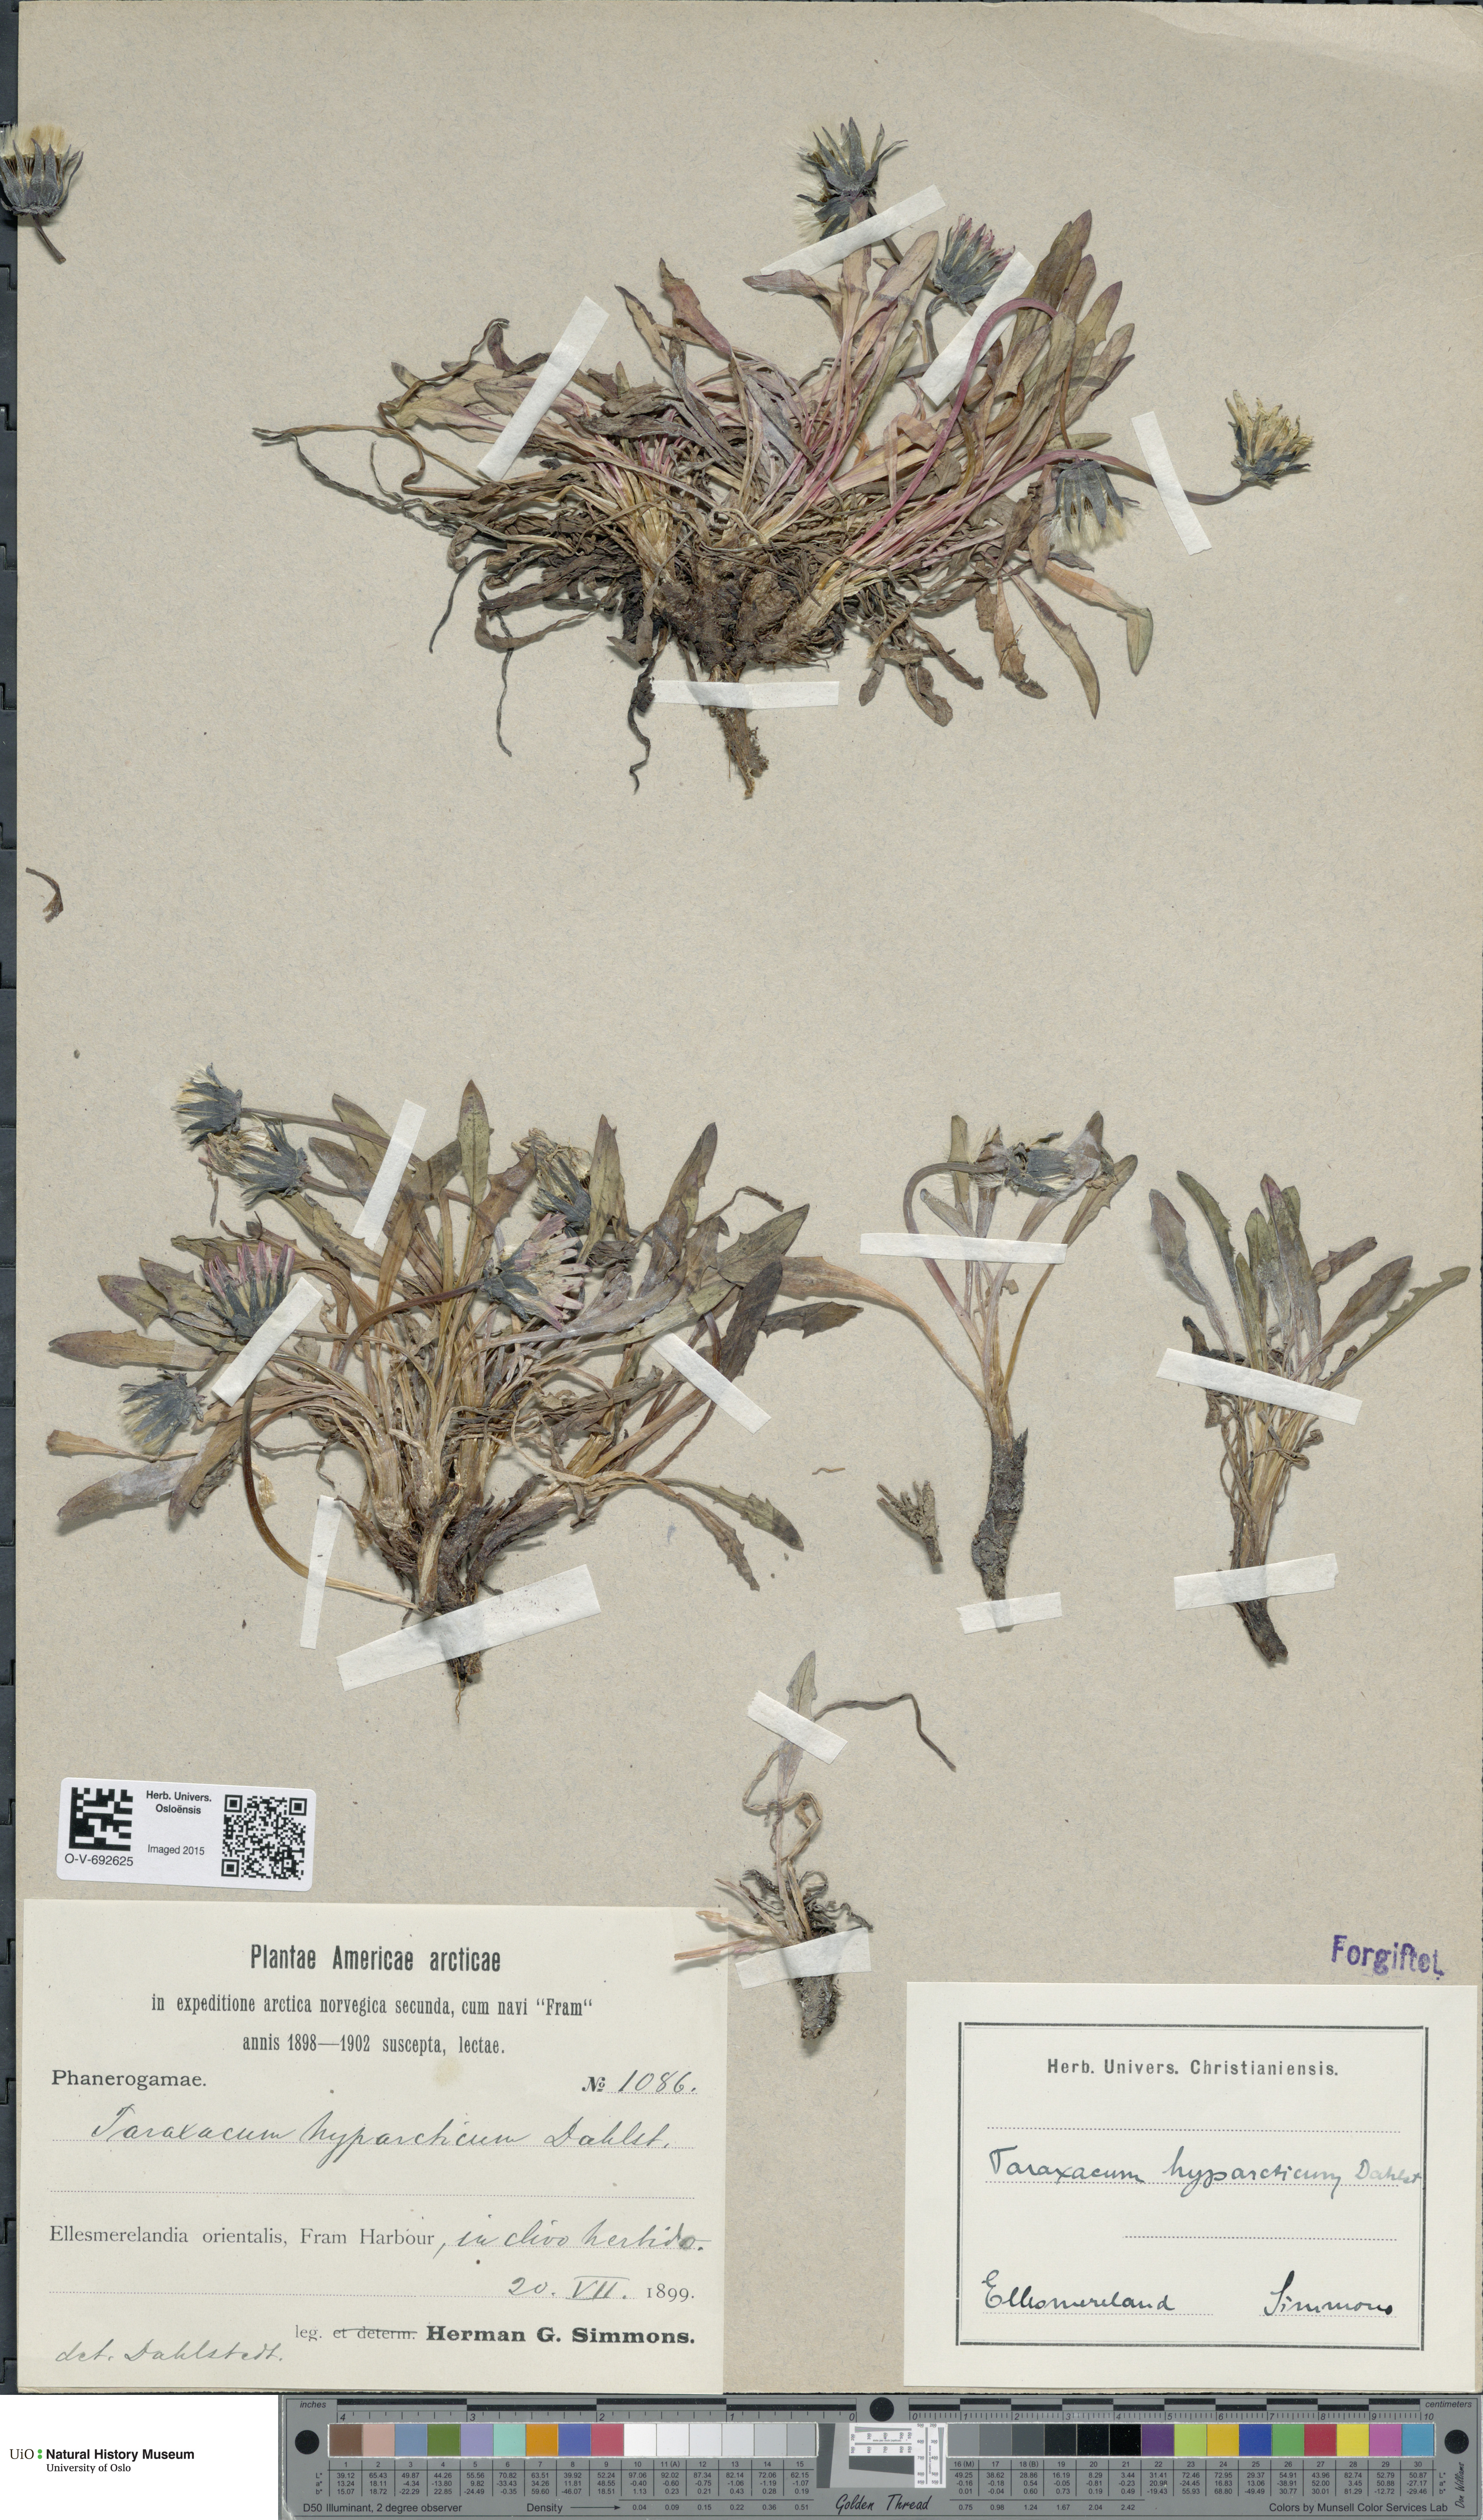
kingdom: Plantae
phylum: Tracheophyta
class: Magnoliopsida
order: Asterales
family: Asteraceae
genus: Taraxacum
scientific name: Taraxacum hyparcticum
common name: High arctic dandelion
